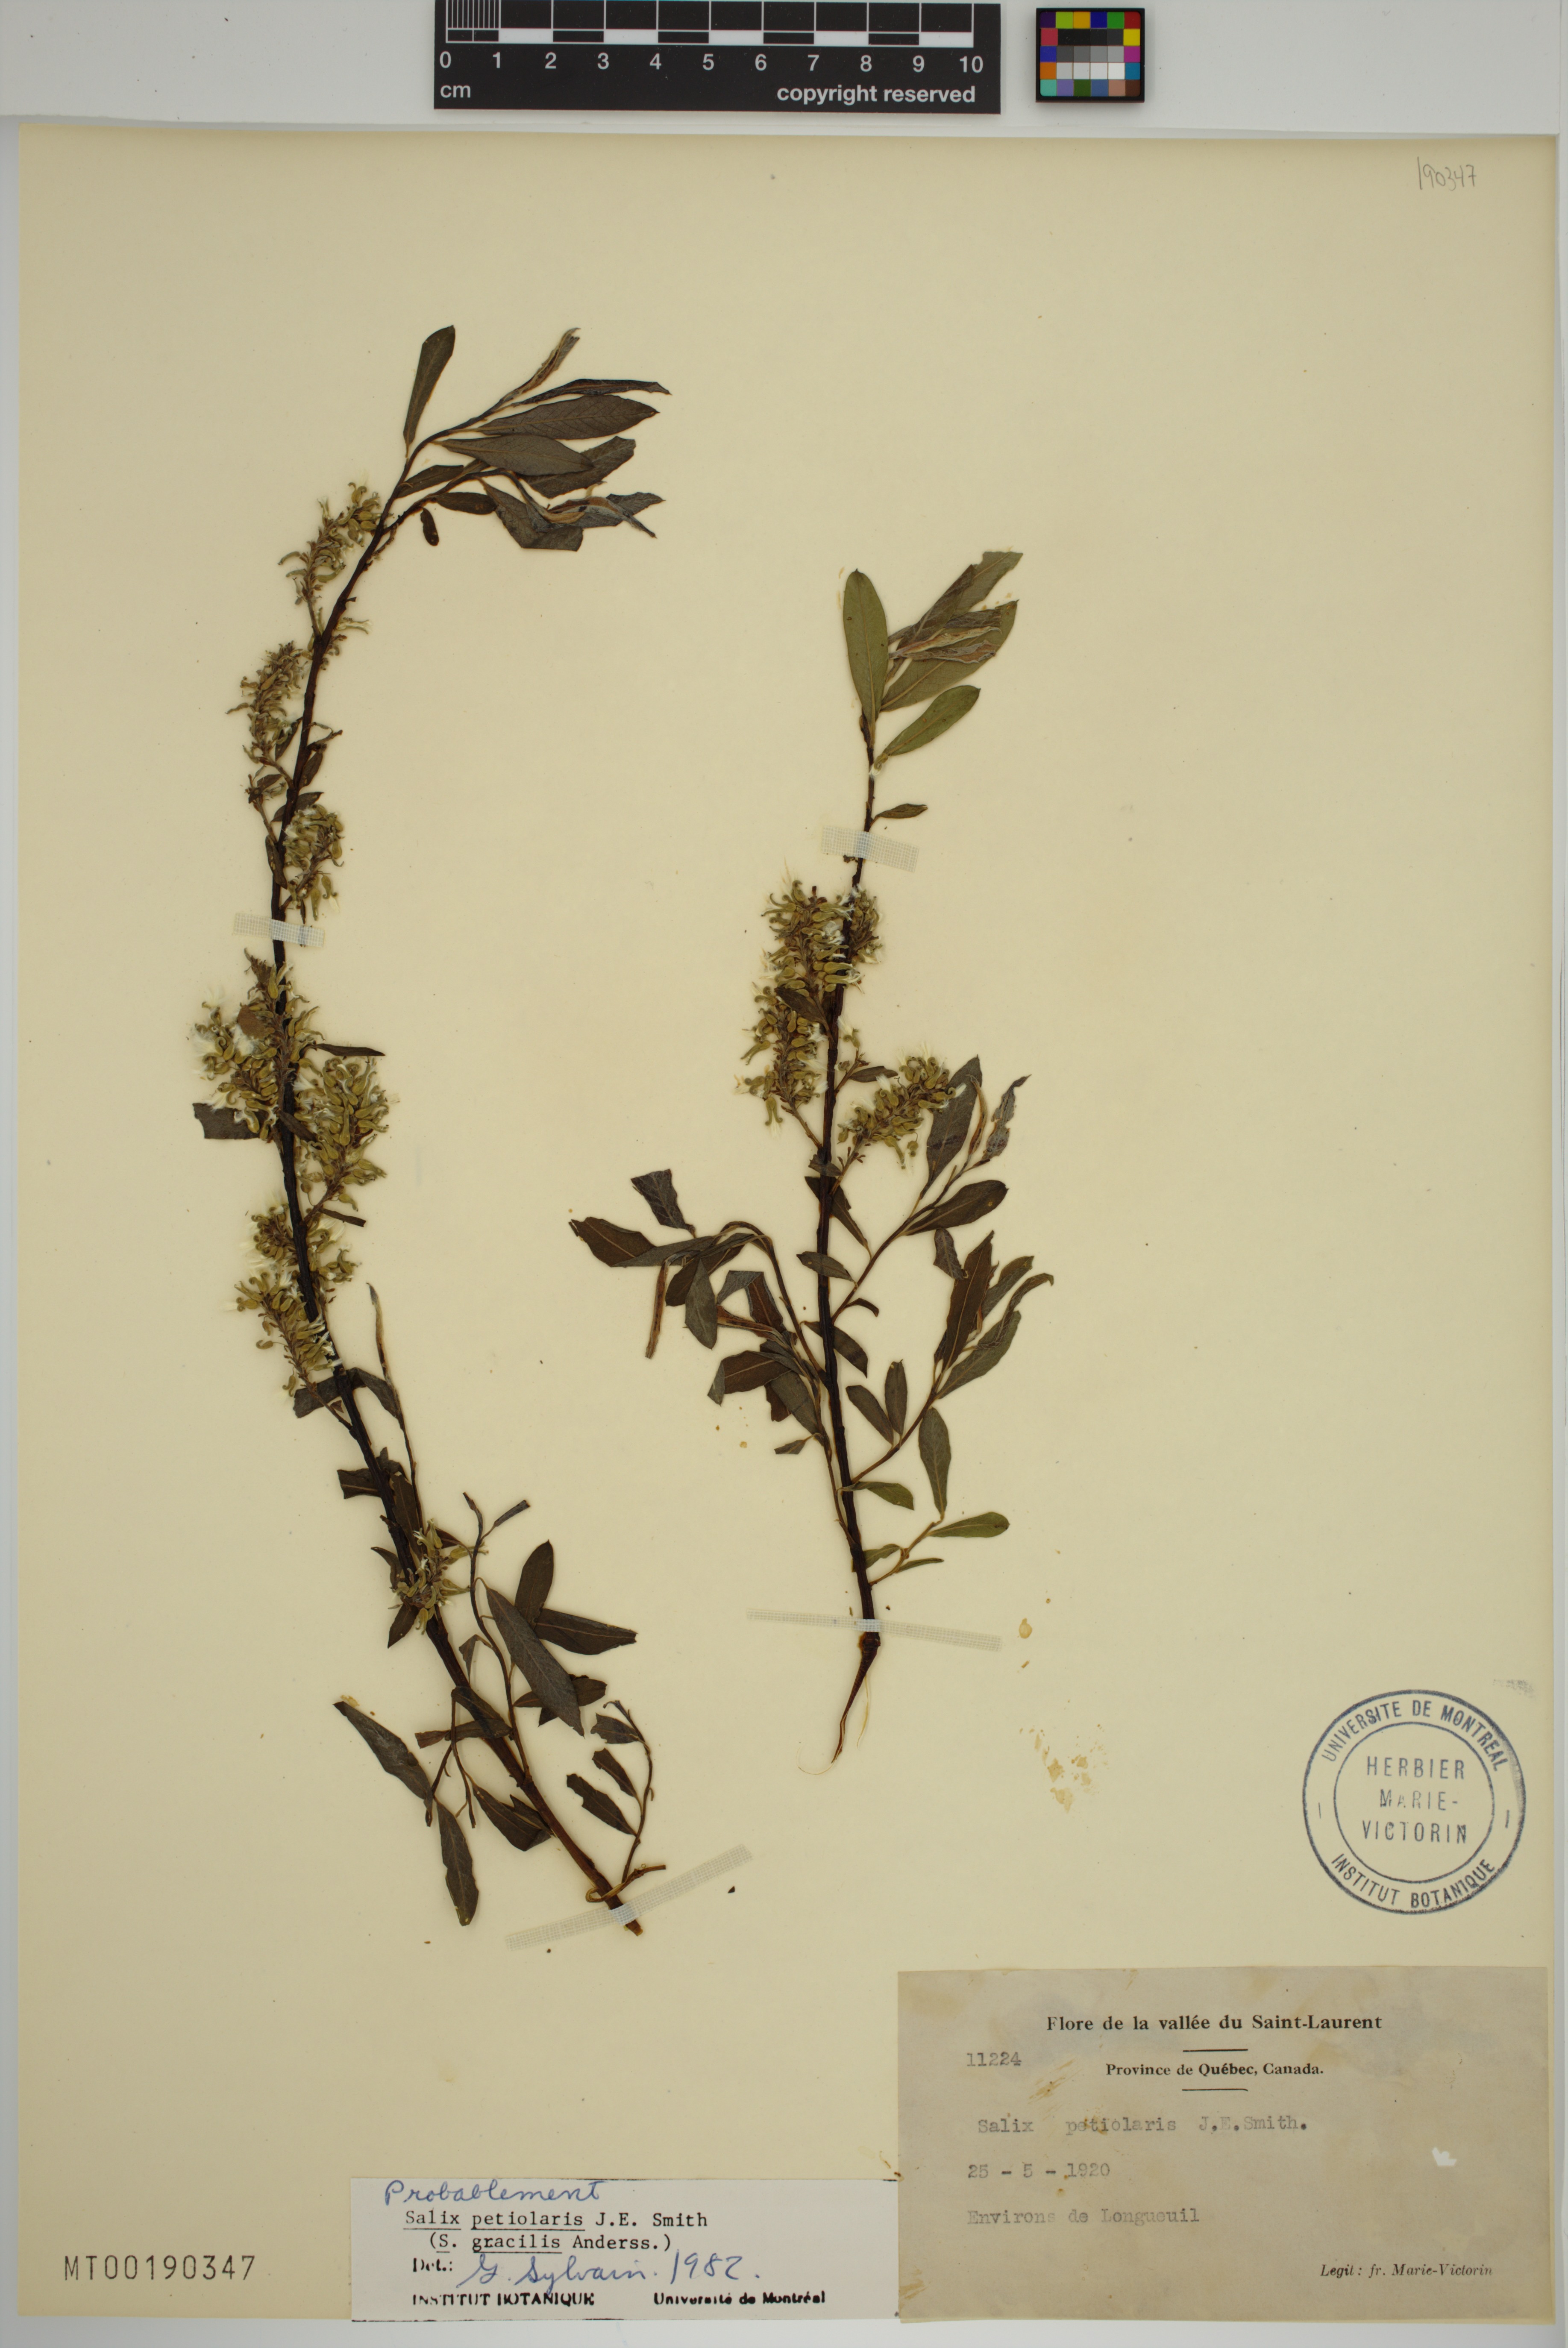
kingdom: Plantae
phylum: Tracheophyta
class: Magnoliopsida
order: Malpighiales
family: Salicaceae
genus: Salix
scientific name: Salix petiolaris
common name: Slender willow
